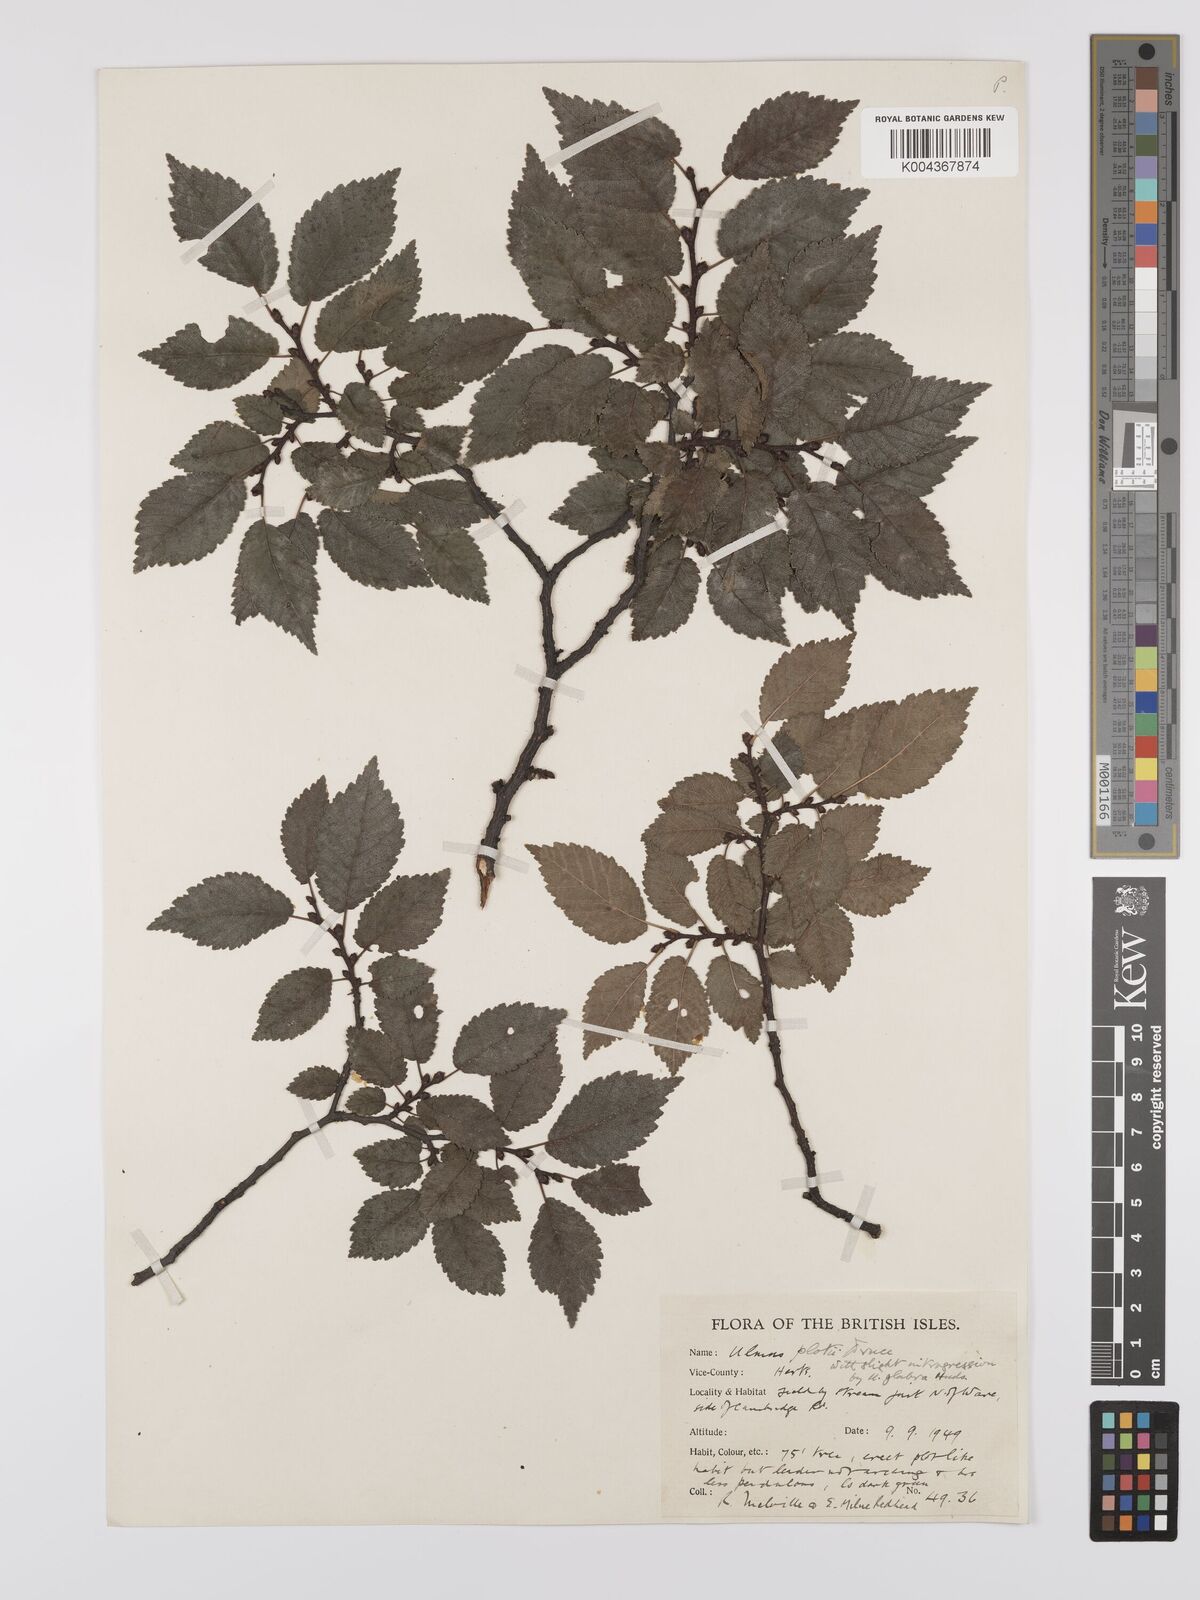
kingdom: Plantae
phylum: Tracheophyta
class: Magnoliopsida
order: Rosales
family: Ulmaceae
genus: Ulmus
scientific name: Ulmus
